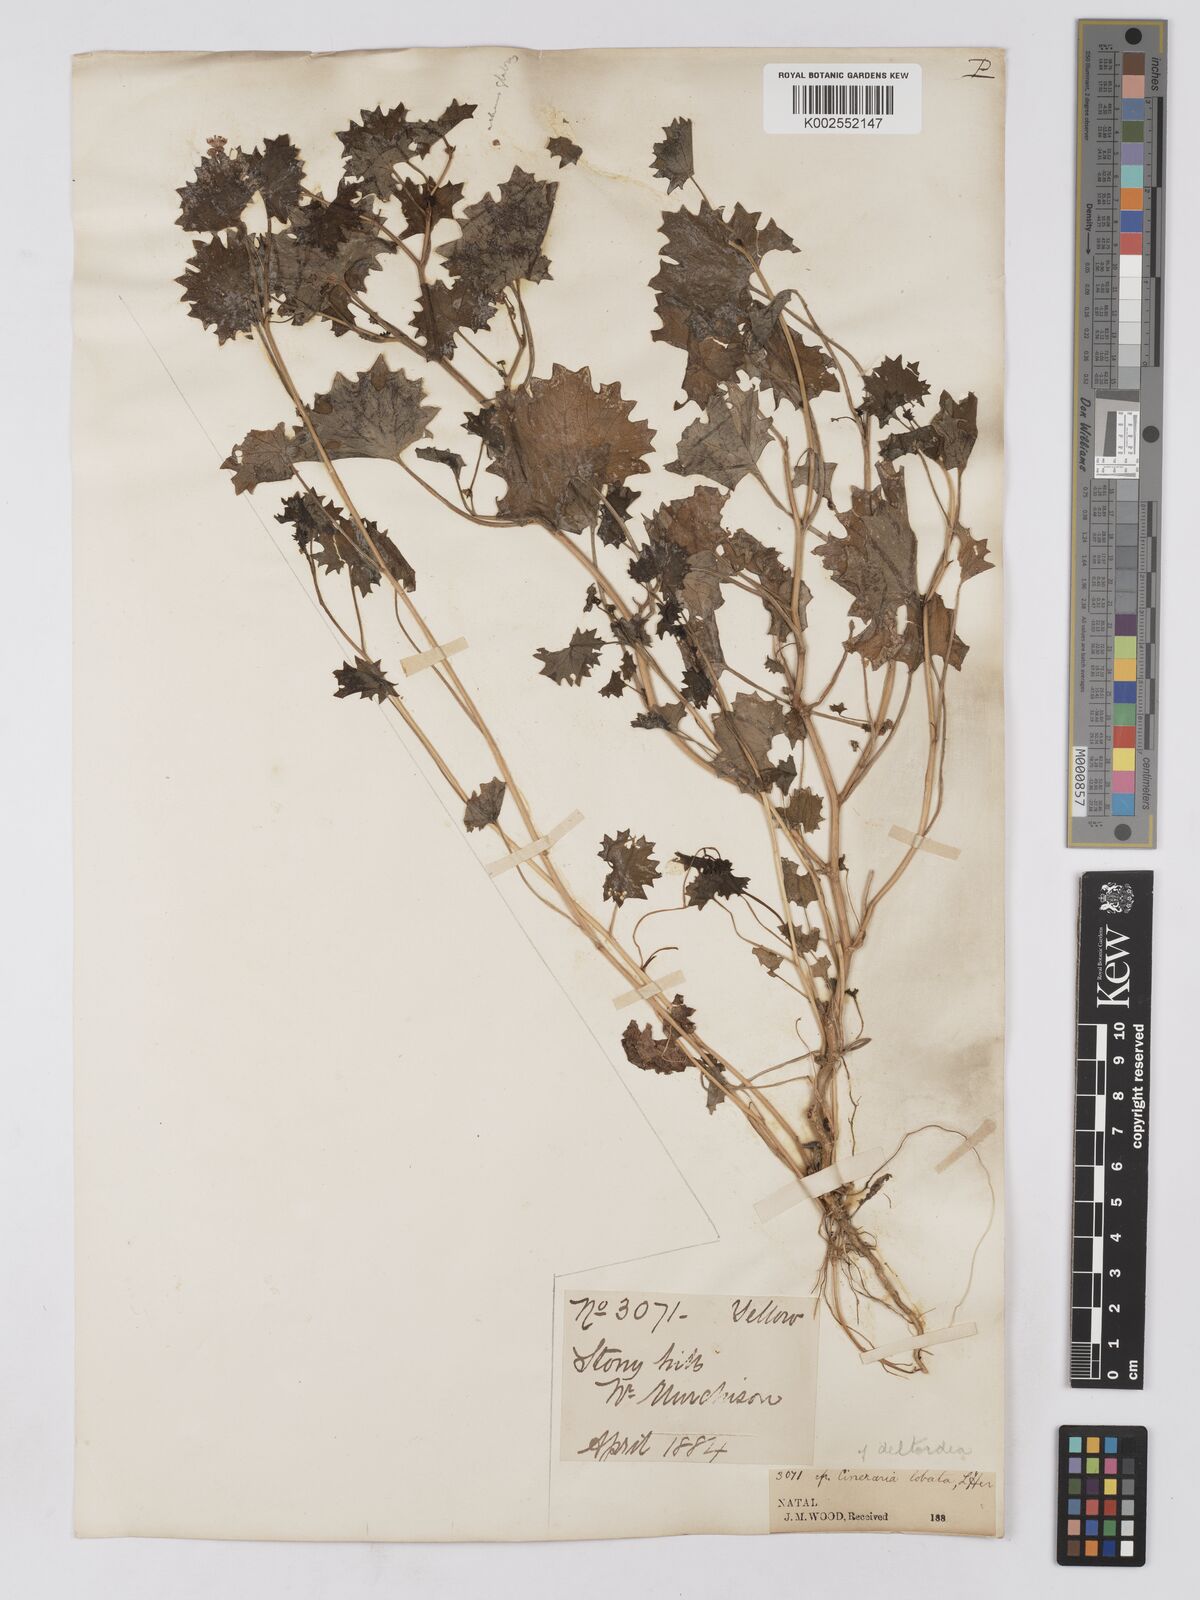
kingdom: Plantae
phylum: Tracheophyta
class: Magnoliopsida
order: Asterales
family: Asteraceae
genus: Cineraria
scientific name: Cineraria deltoidea
